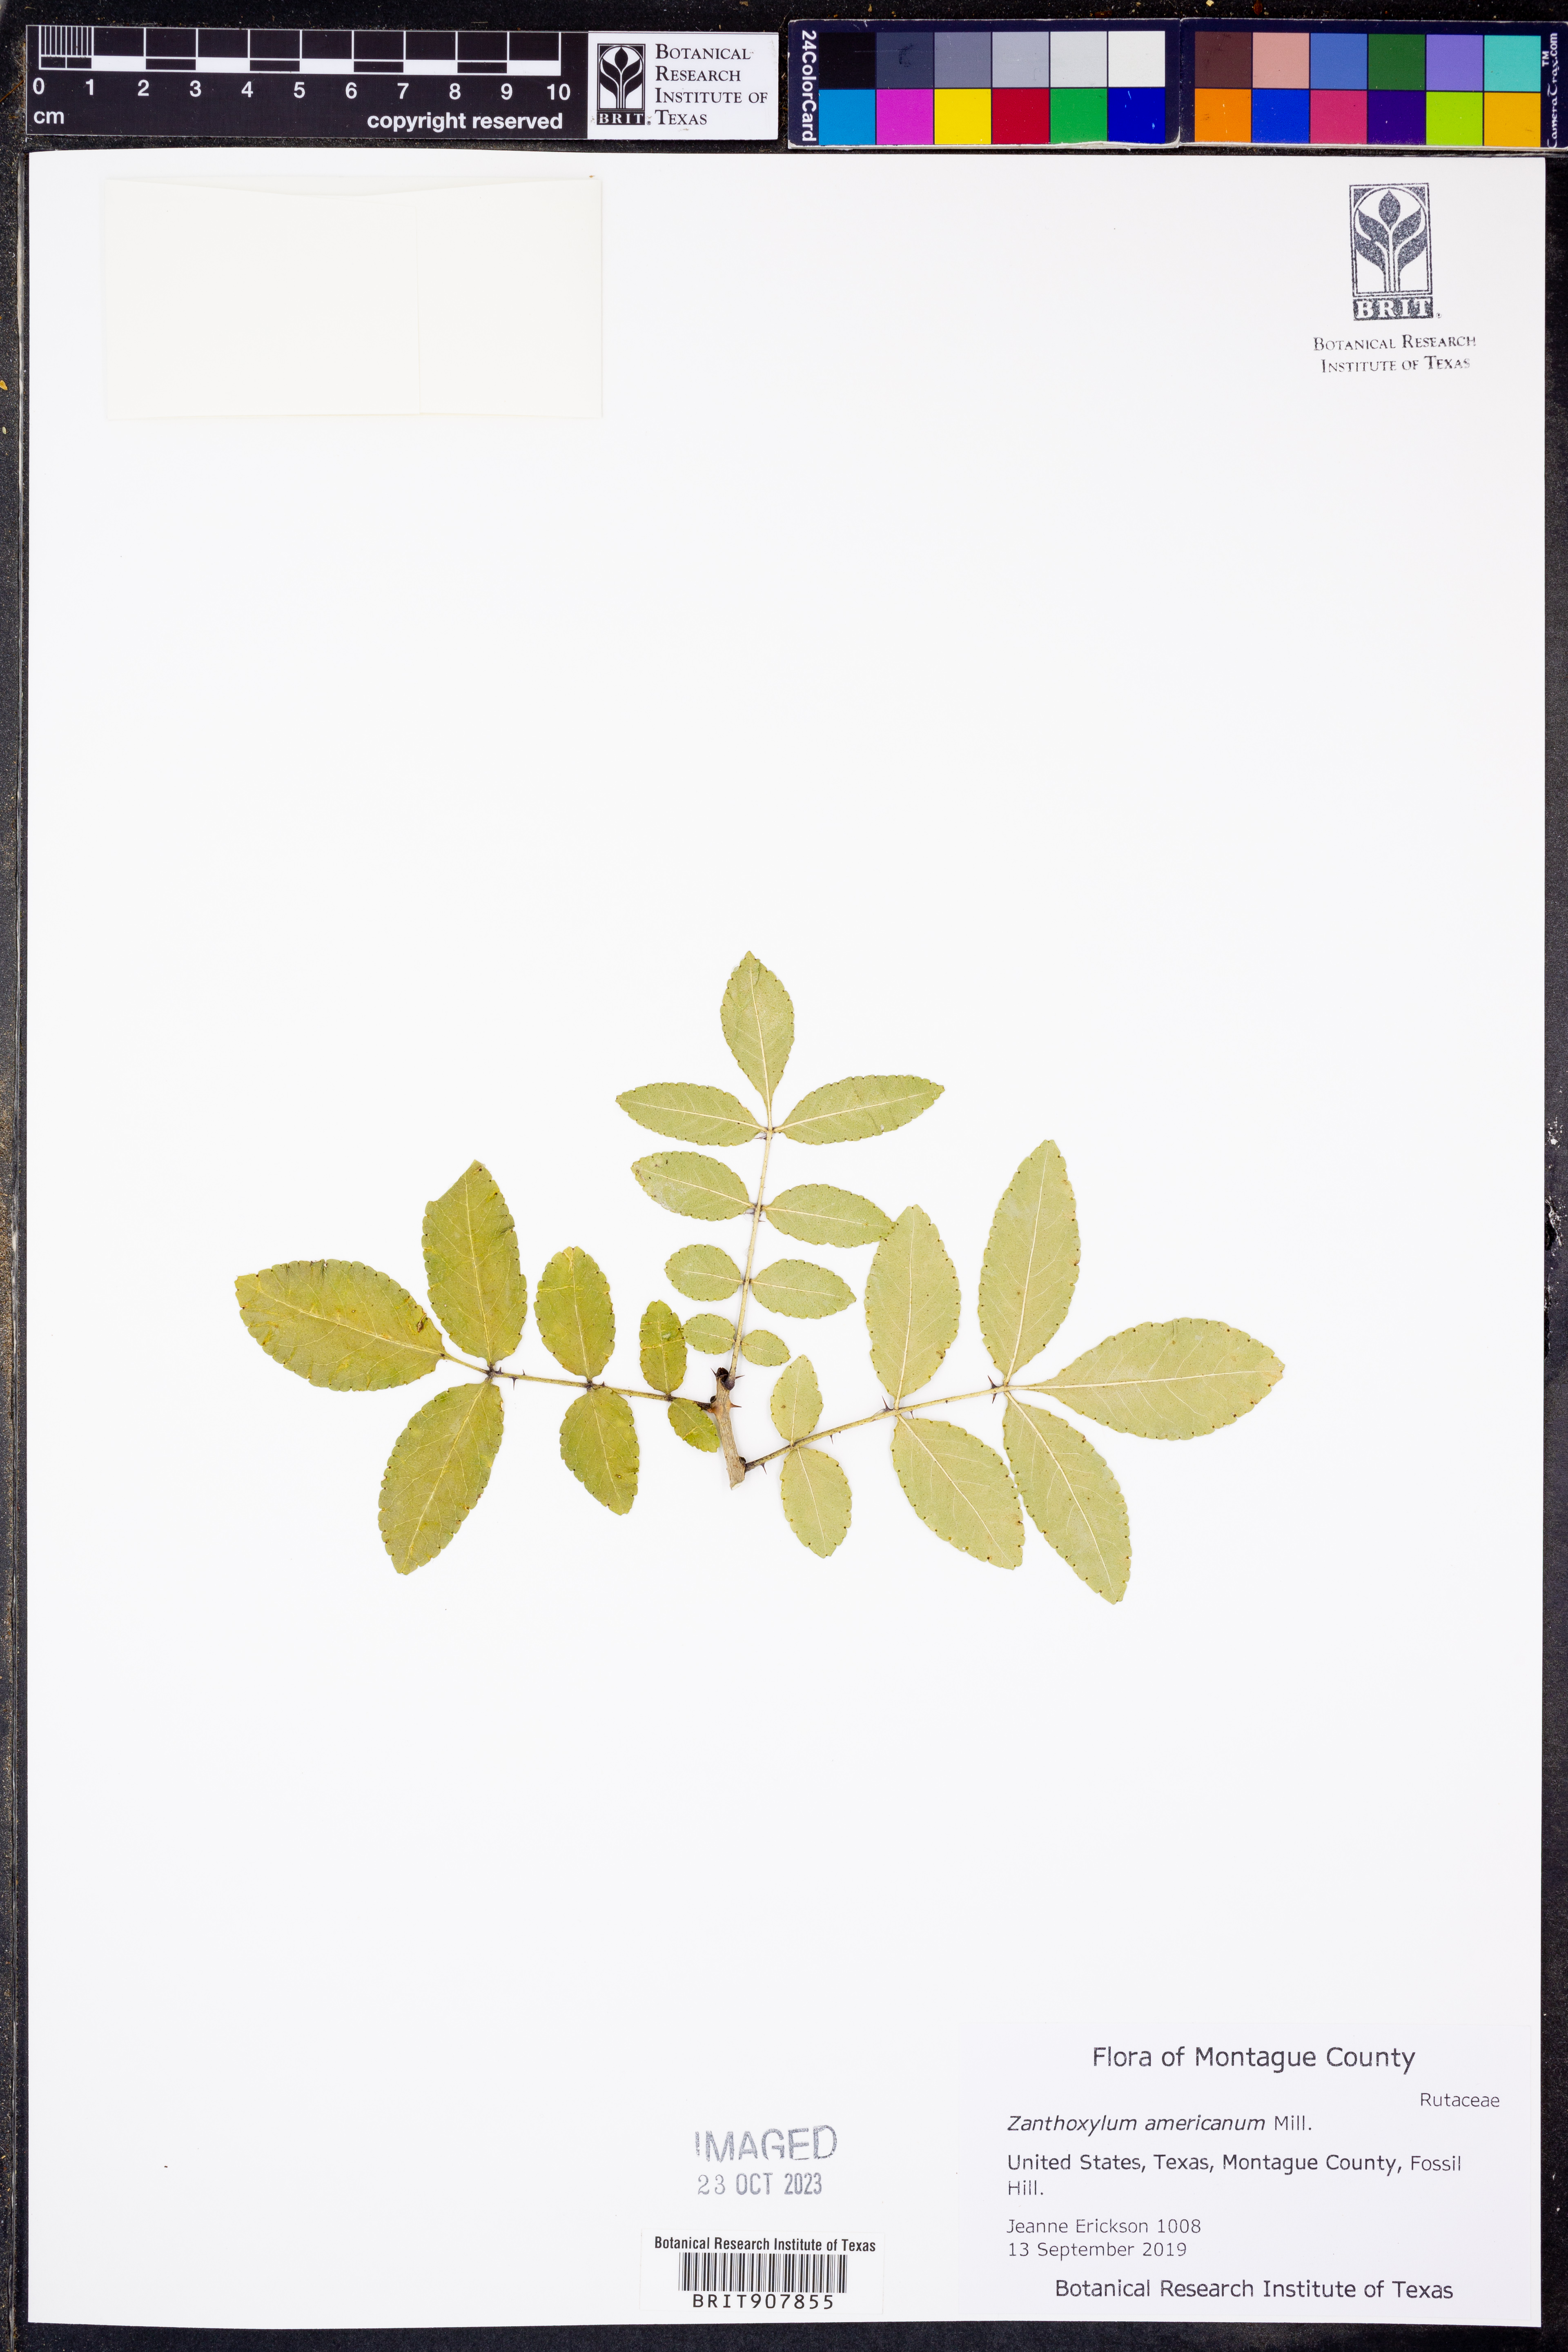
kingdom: Plantae
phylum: Tracheophyta
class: Magnoliopsida
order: Sapindales
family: Rutaceae
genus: Zanthoxylum
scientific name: Zanthoxylum americanum
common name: Northern prickly-ash
